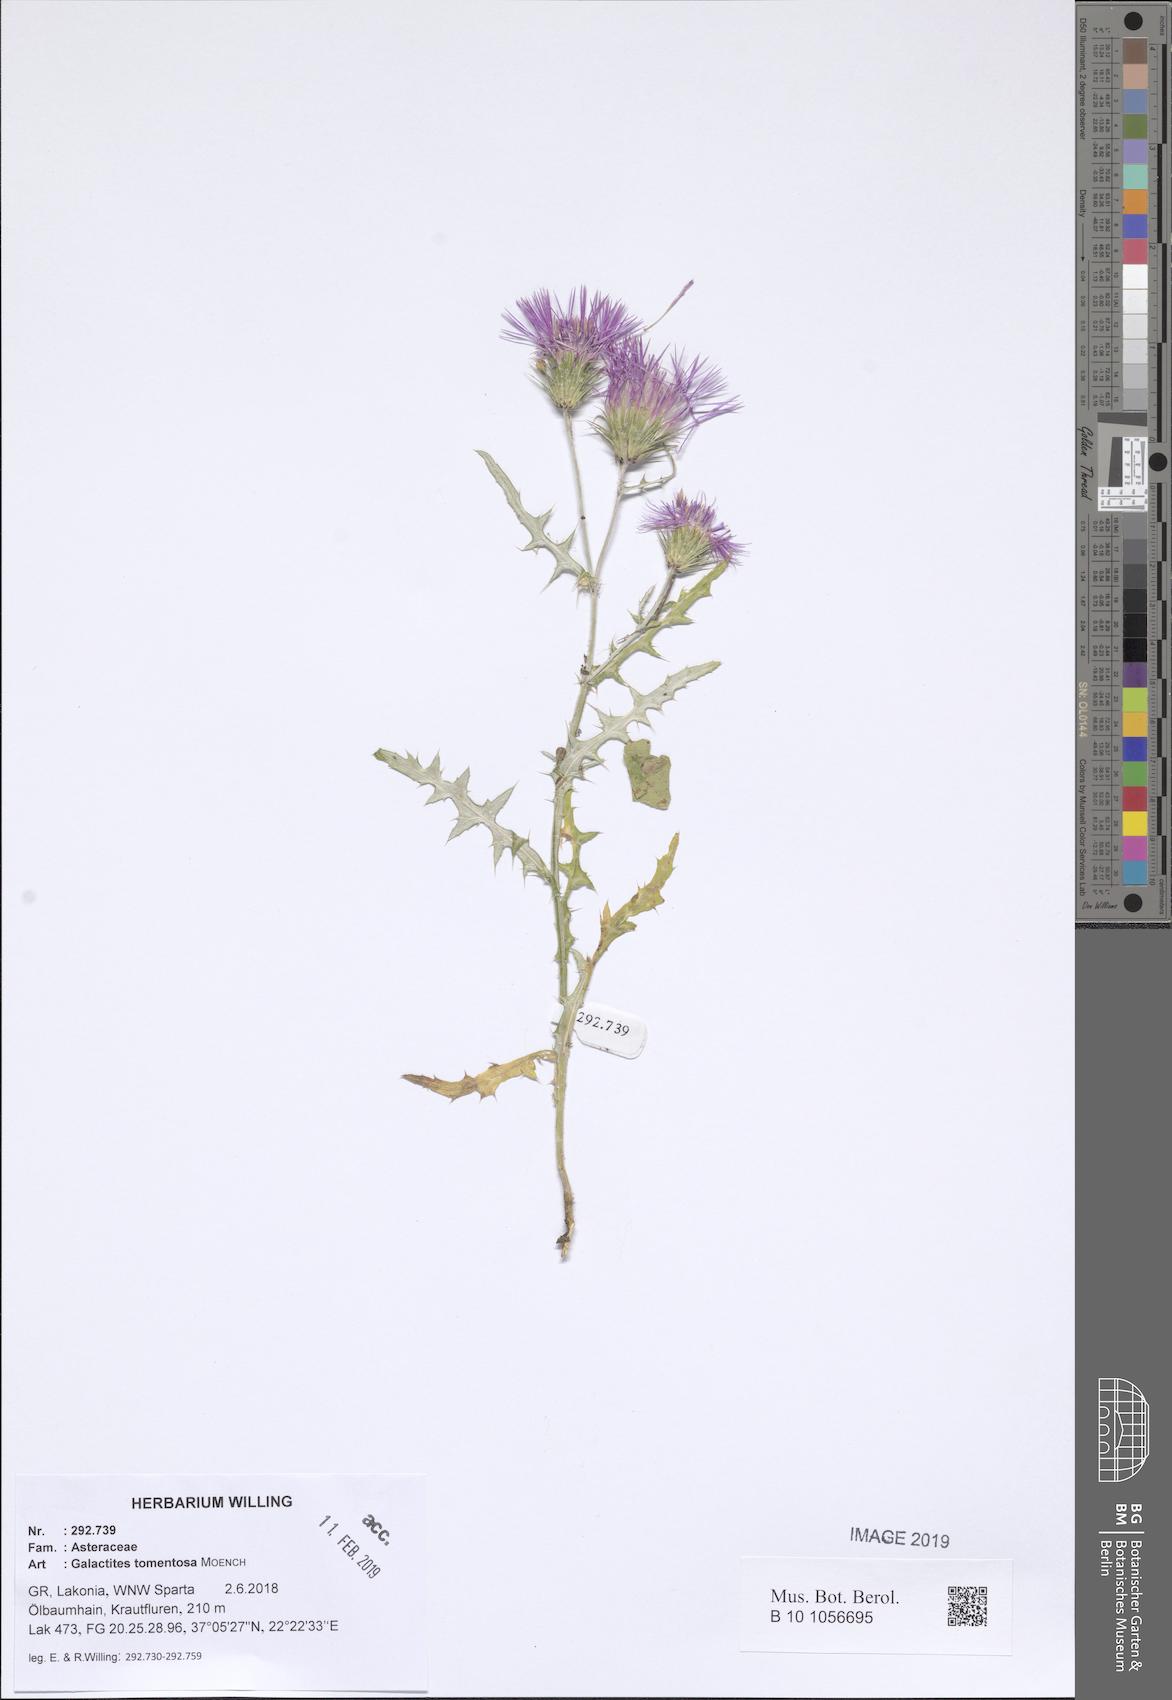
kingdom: Plantae
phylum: Tracheophyta
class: Magnoliopsida
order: Asterales
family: Asteraceae
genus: Galactites
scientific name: Galactites tomentosa
